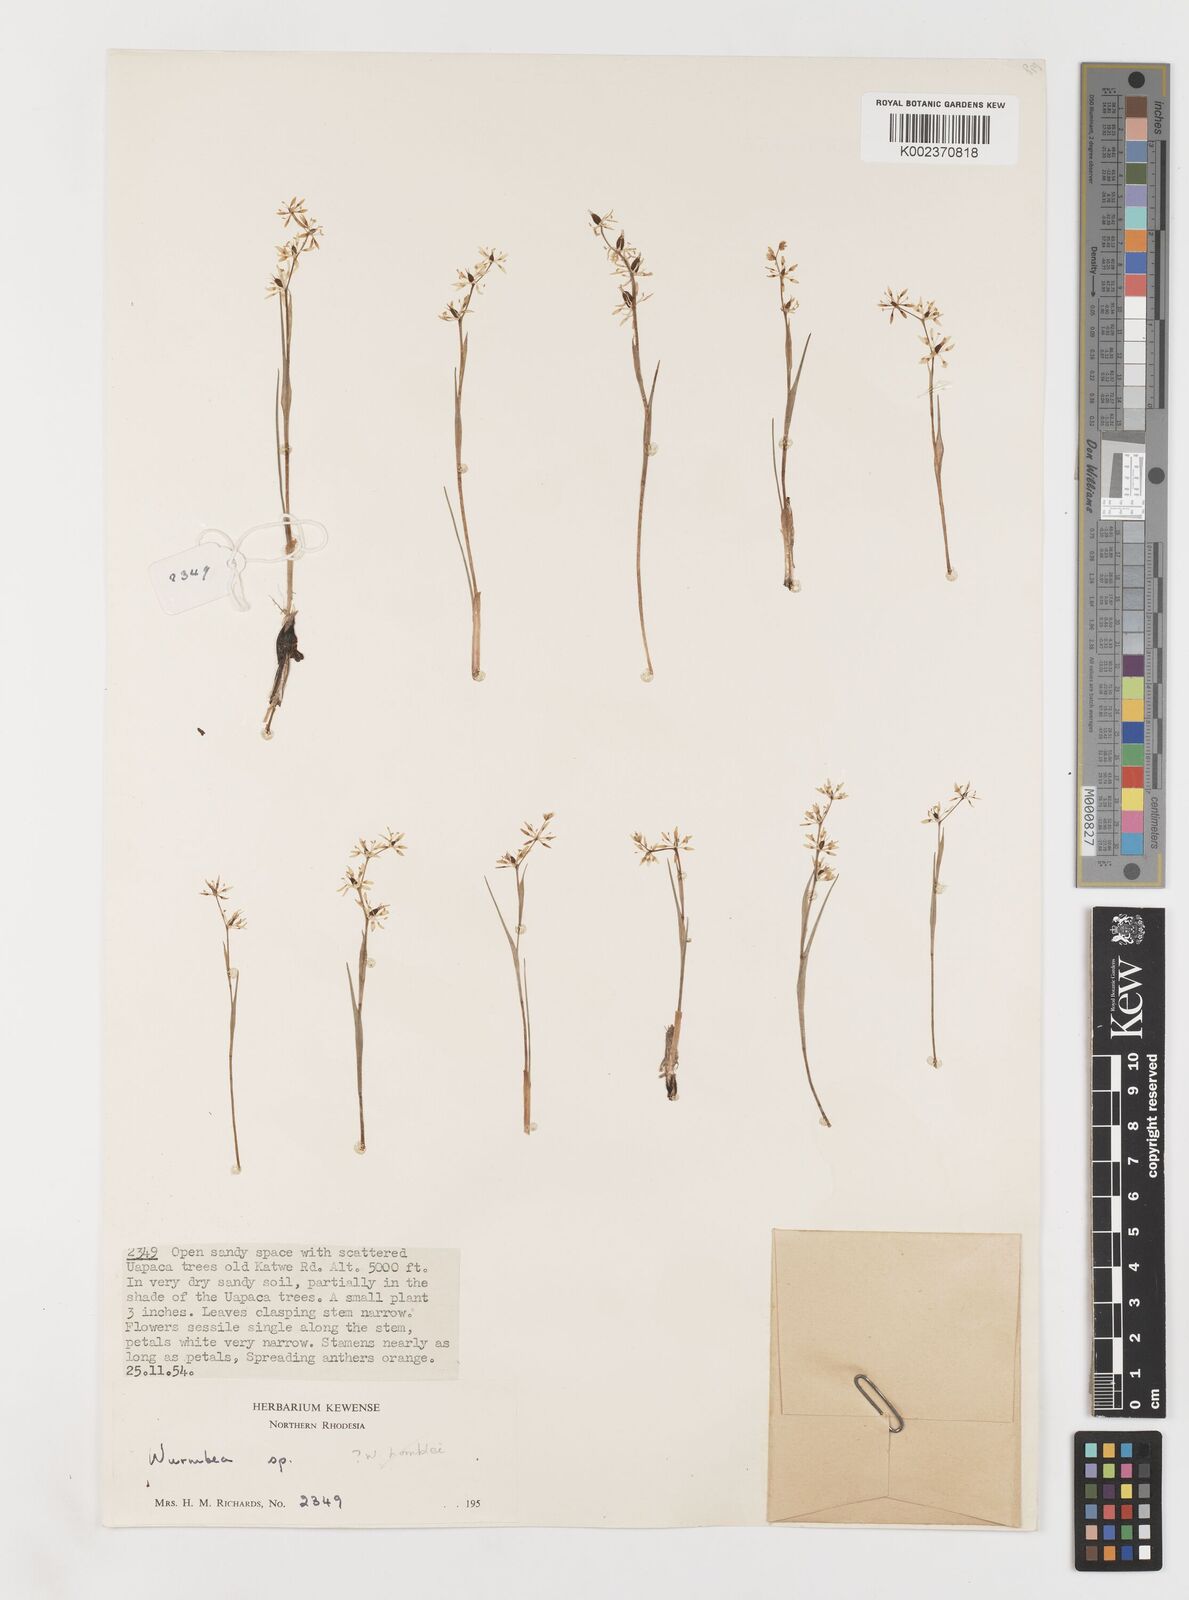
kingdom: Plantae
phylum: Tracheophyta
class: Liliopsida
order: Liliales
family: Colchicaceae
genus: Wurmbea
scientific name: Wurmbea tenuis
